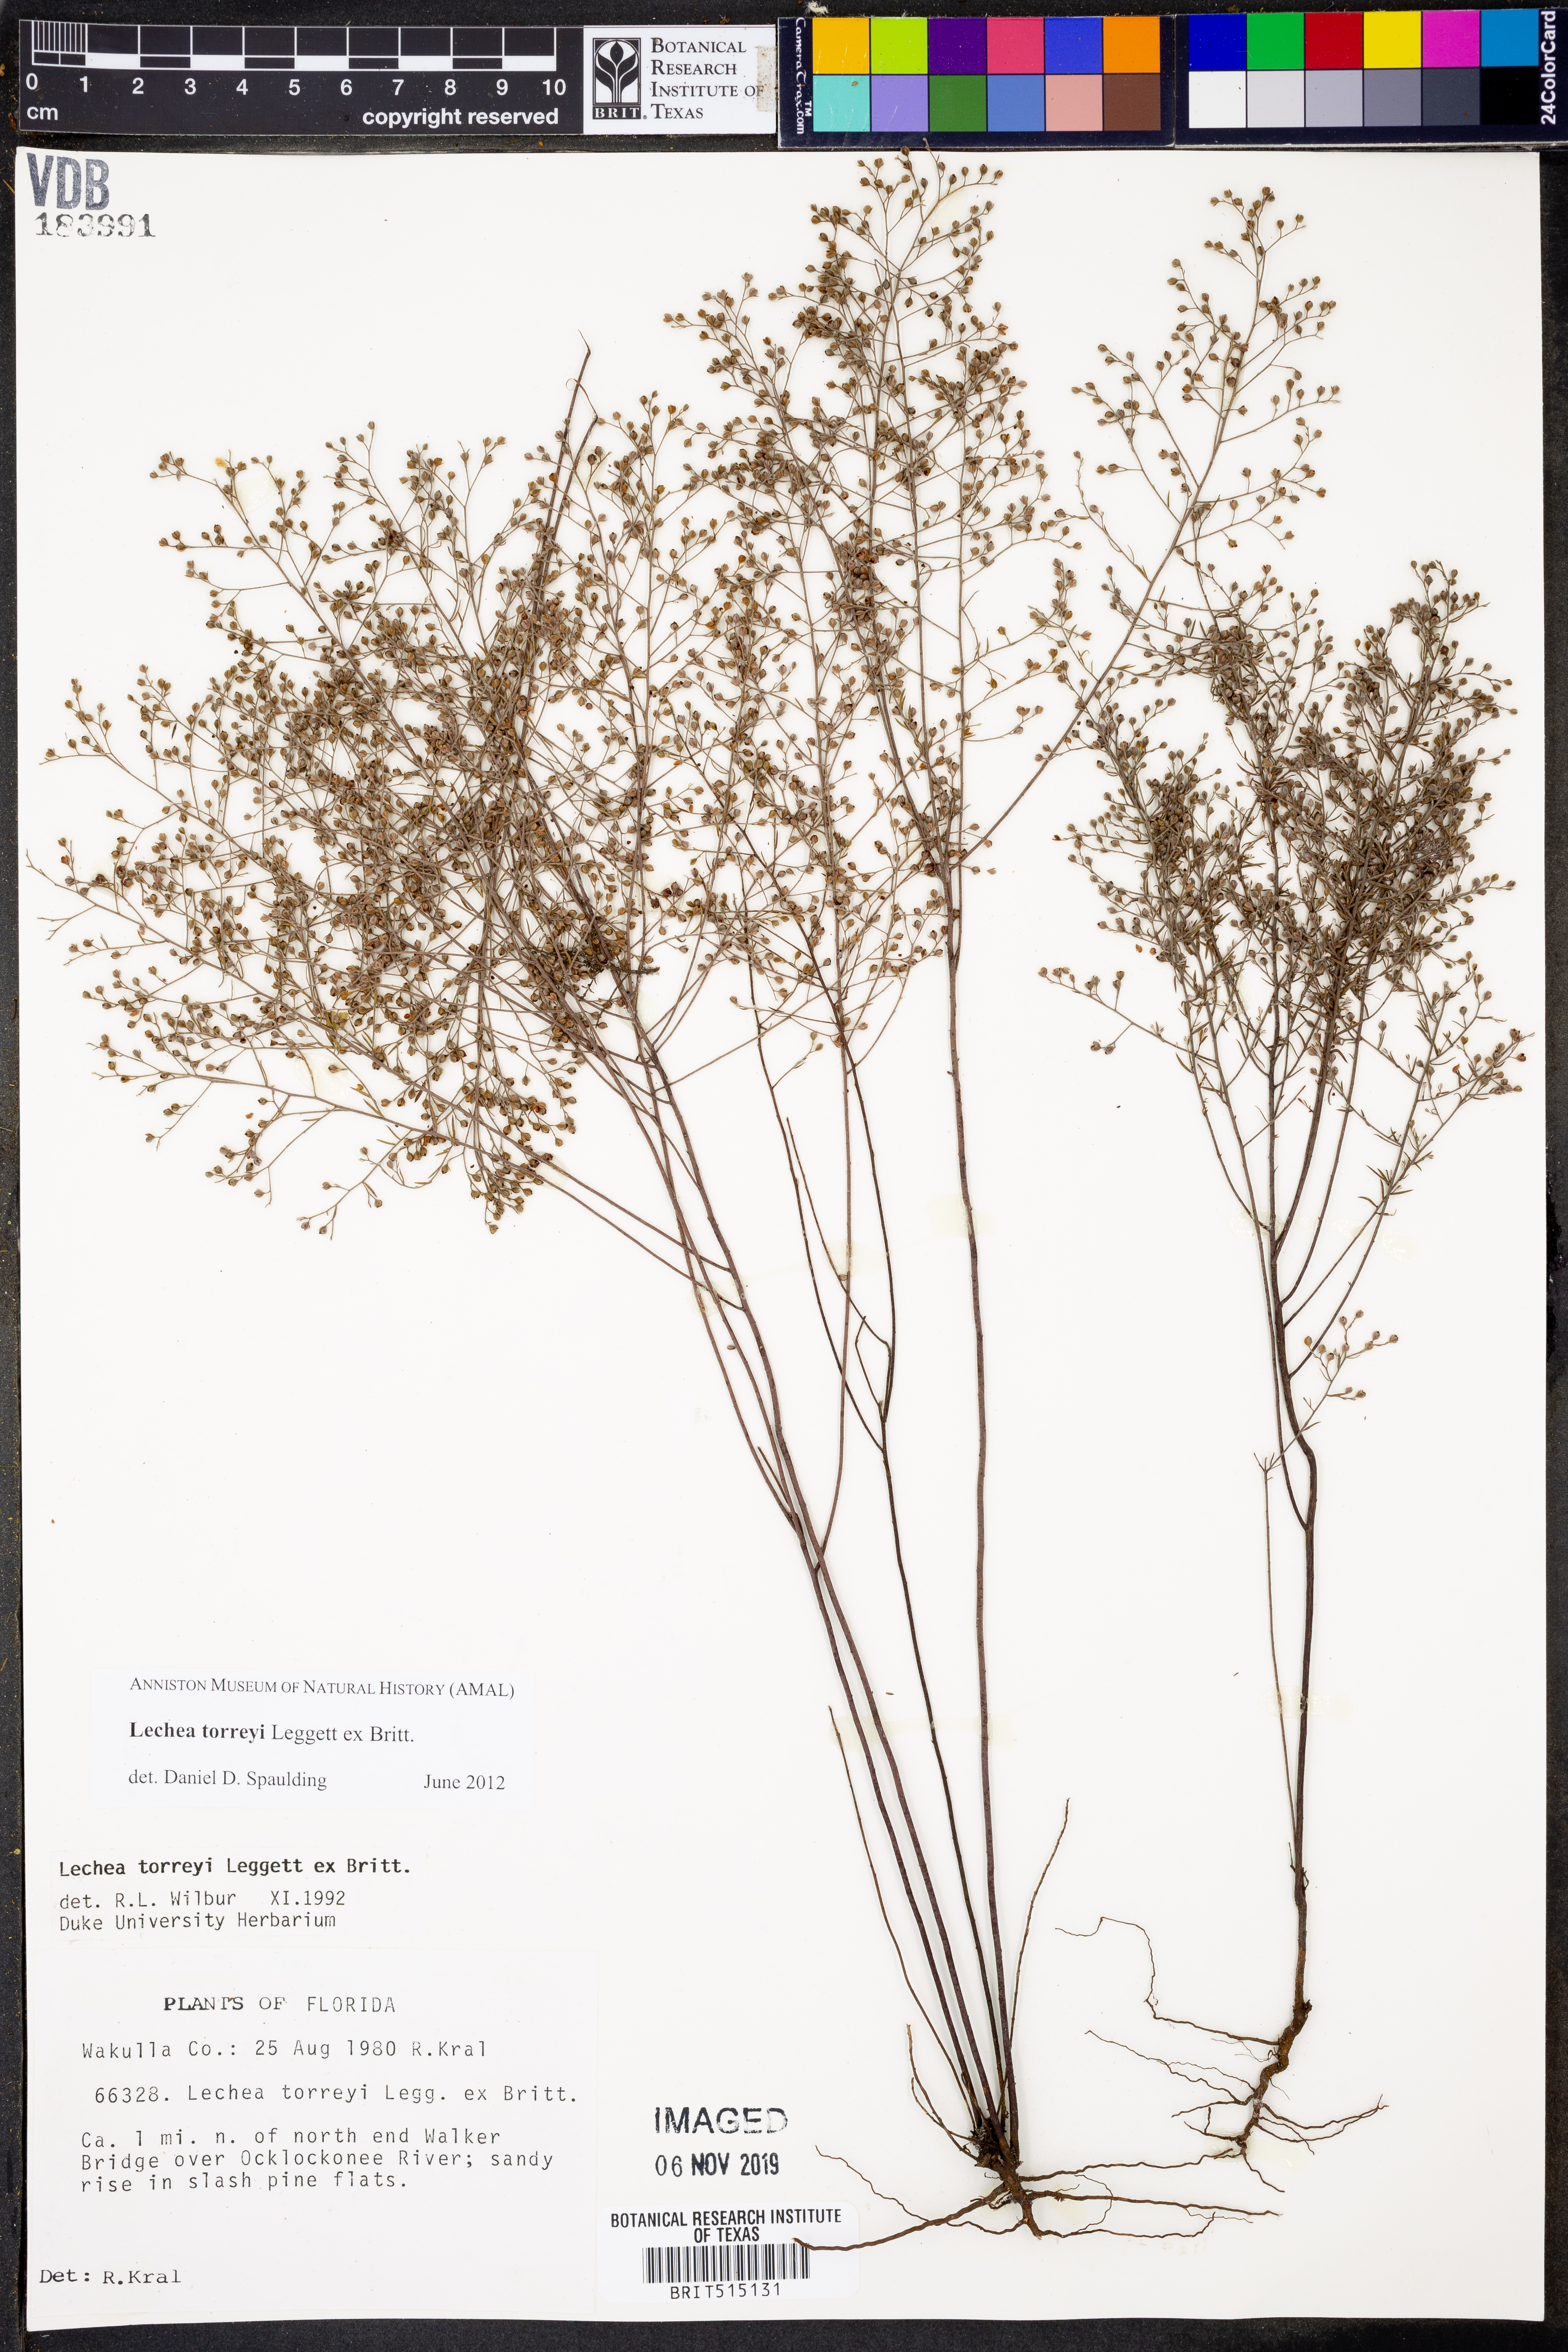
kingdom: Plantae
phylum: Tracheophyta
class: Magnoliopsida
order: Malvales
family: Cistaceae
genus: Lechea
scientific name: Lechea torreyi
